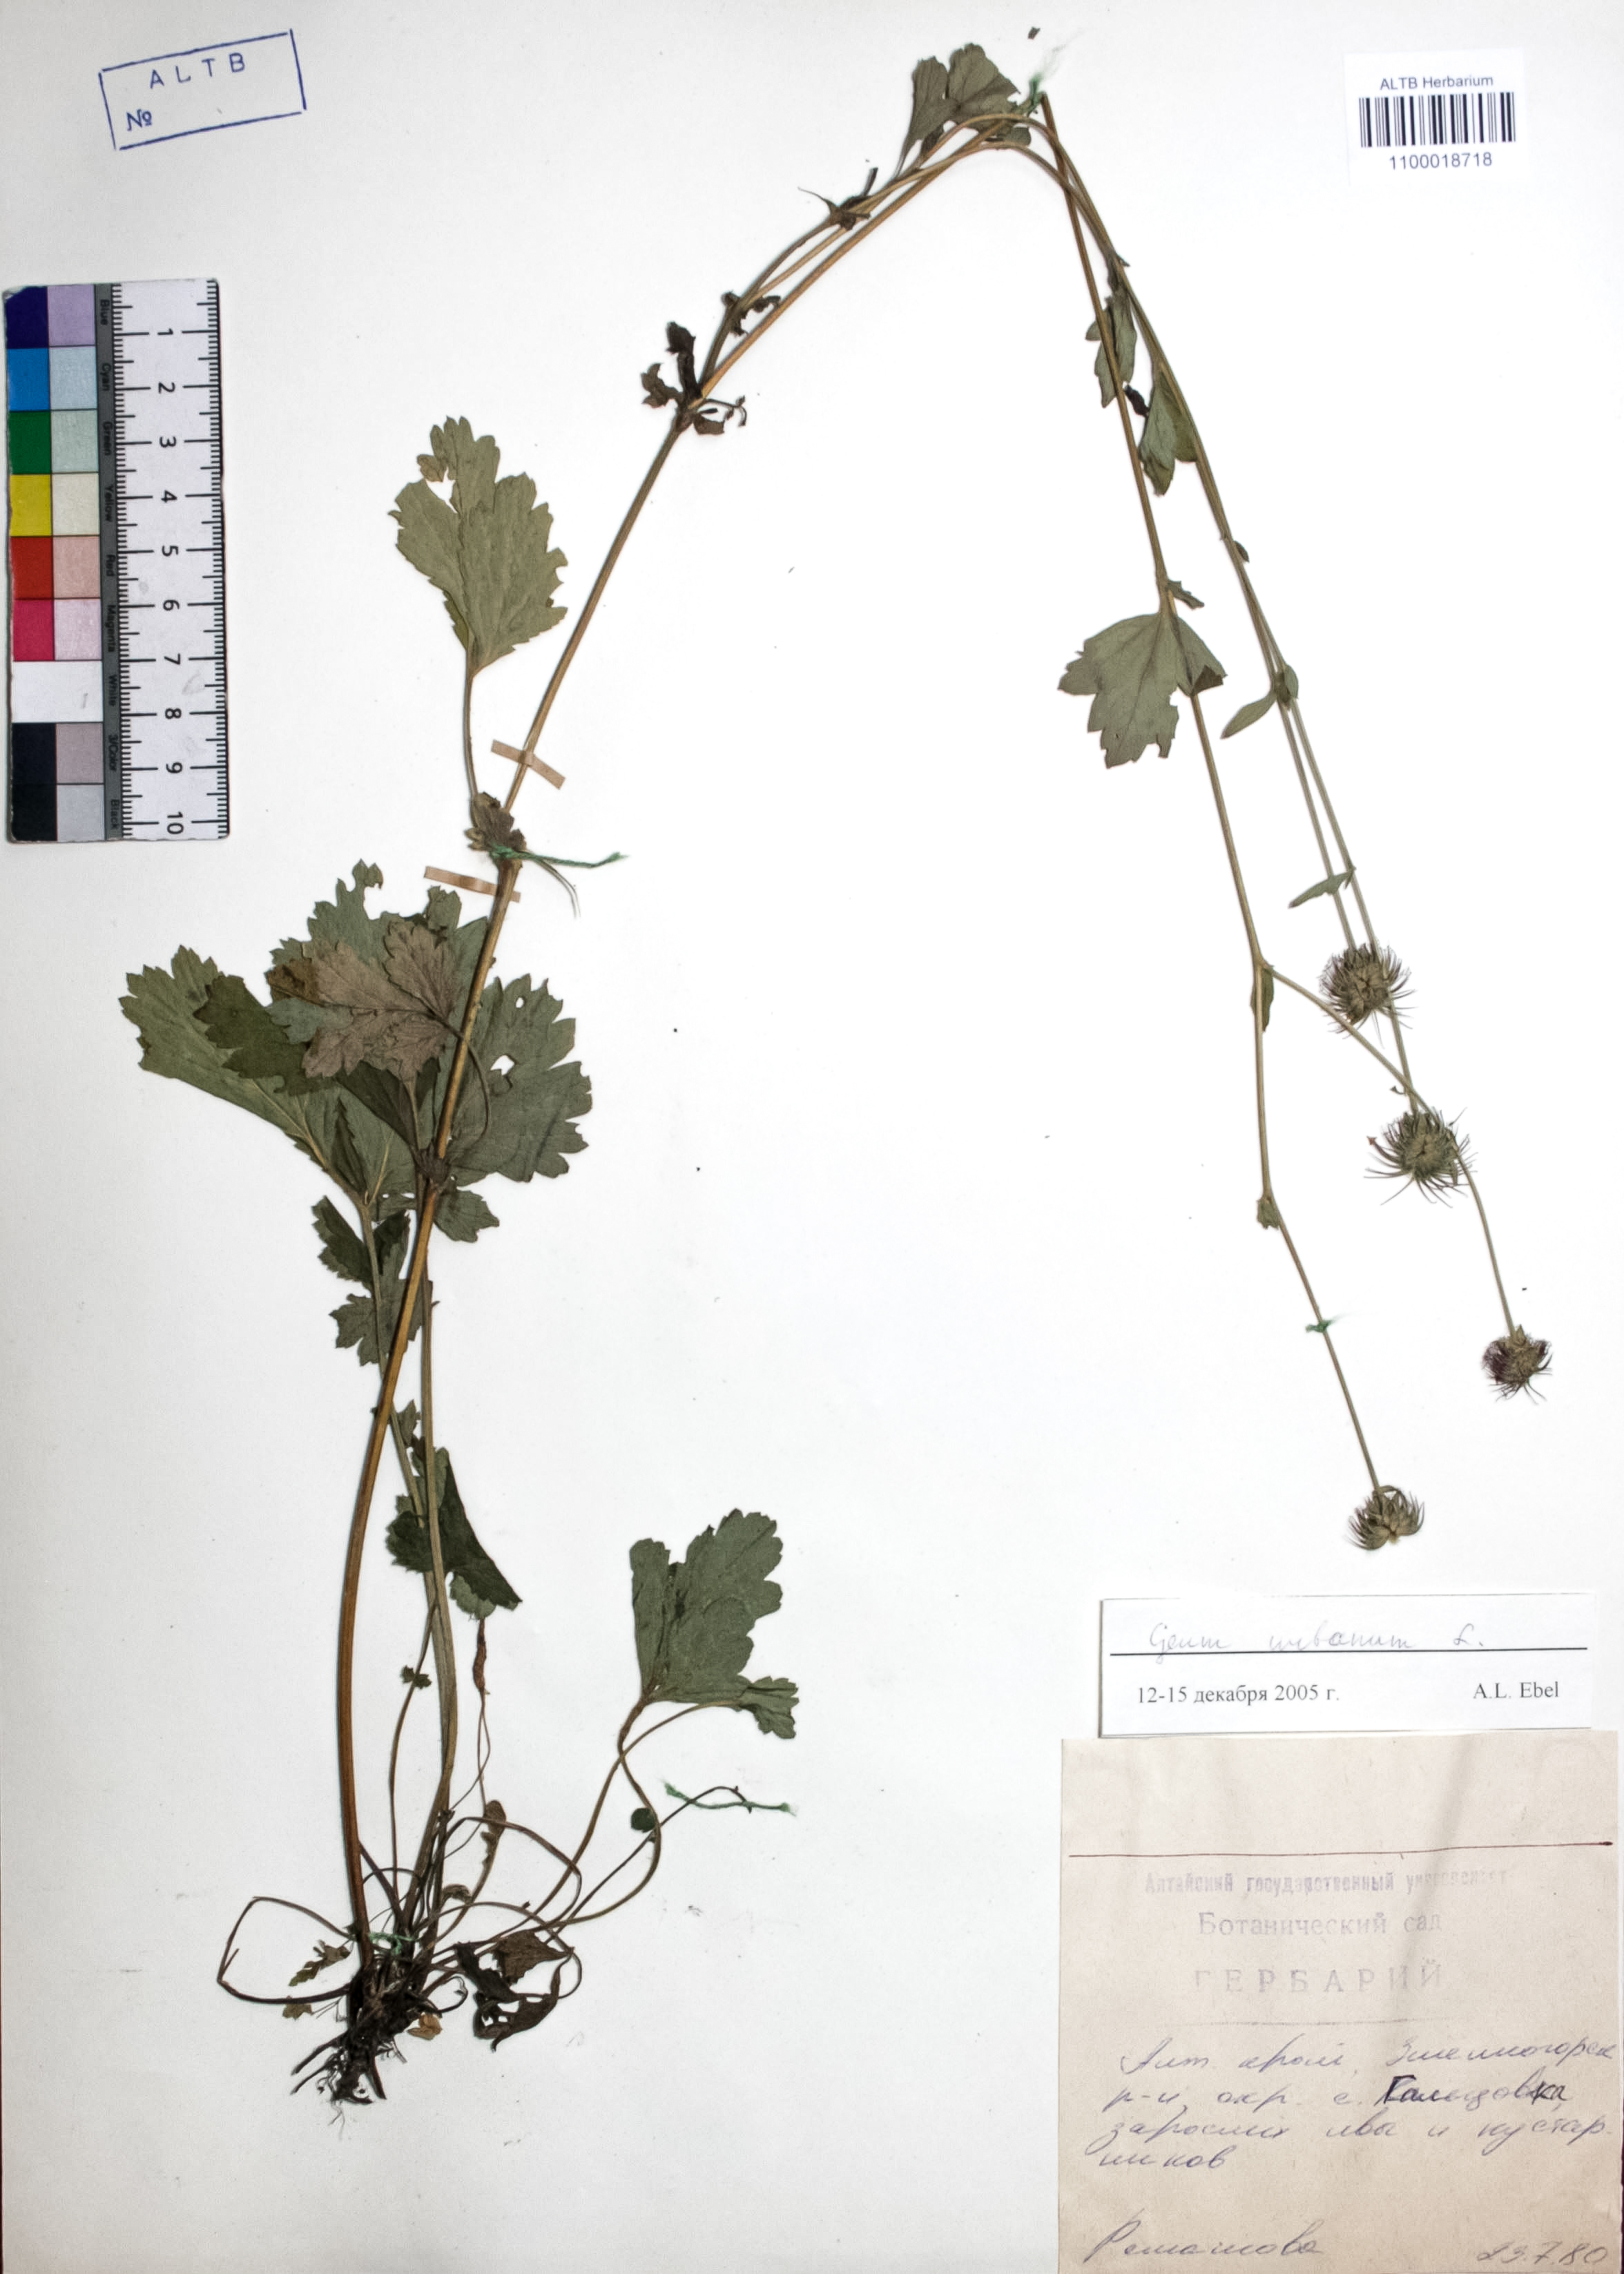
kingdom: Plantae
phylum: Tracheophyta
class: Magnoliopsida
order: Rosales
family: Rosaceae
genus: Geum
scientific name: Geum urbanum
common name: Wood avens
